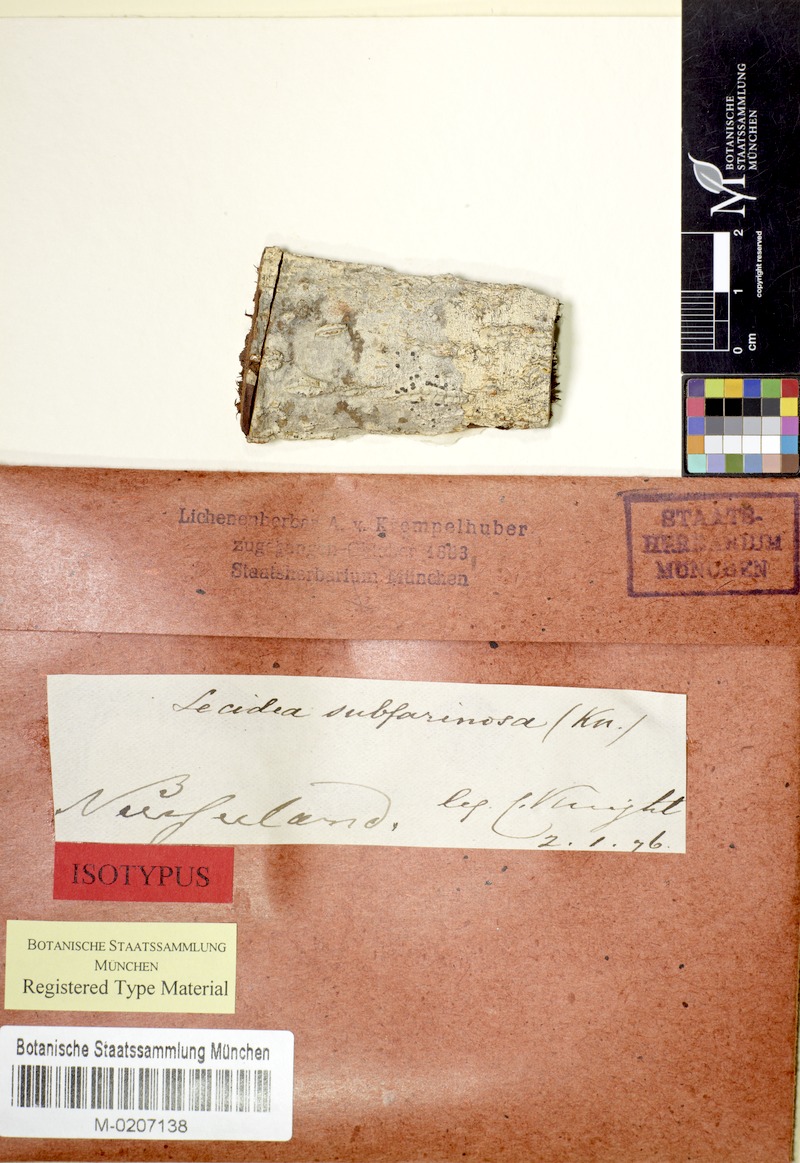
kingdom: Fungi
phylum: Ascomycota
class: Arthoniomycetes
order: Arthoniales
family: Roccellaceae
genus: Lecanactis
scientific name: Lecanactis subfarinosa
